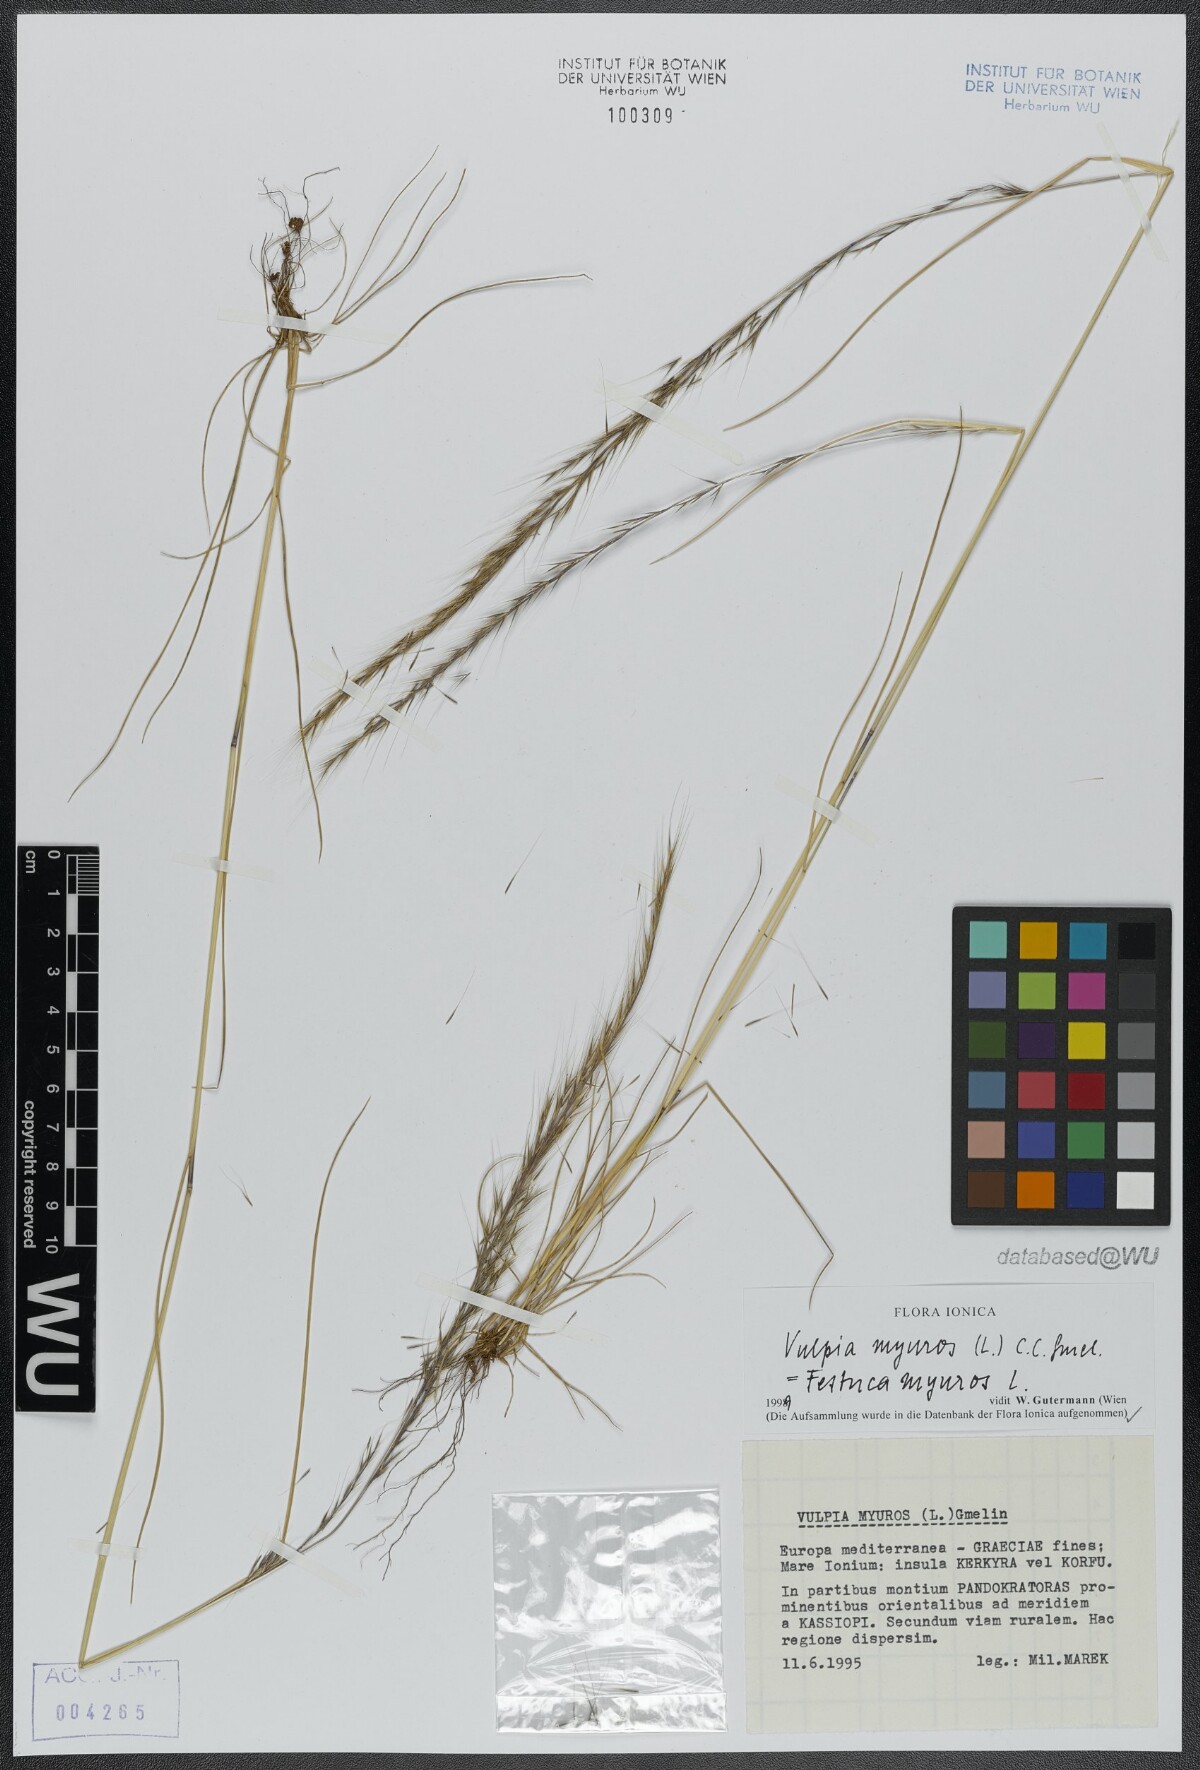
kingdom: Plantae
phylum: Tracheophyta
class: Liliopsida
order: Poales
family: Poaceae
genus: Festuca
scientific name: Festuca myuros
